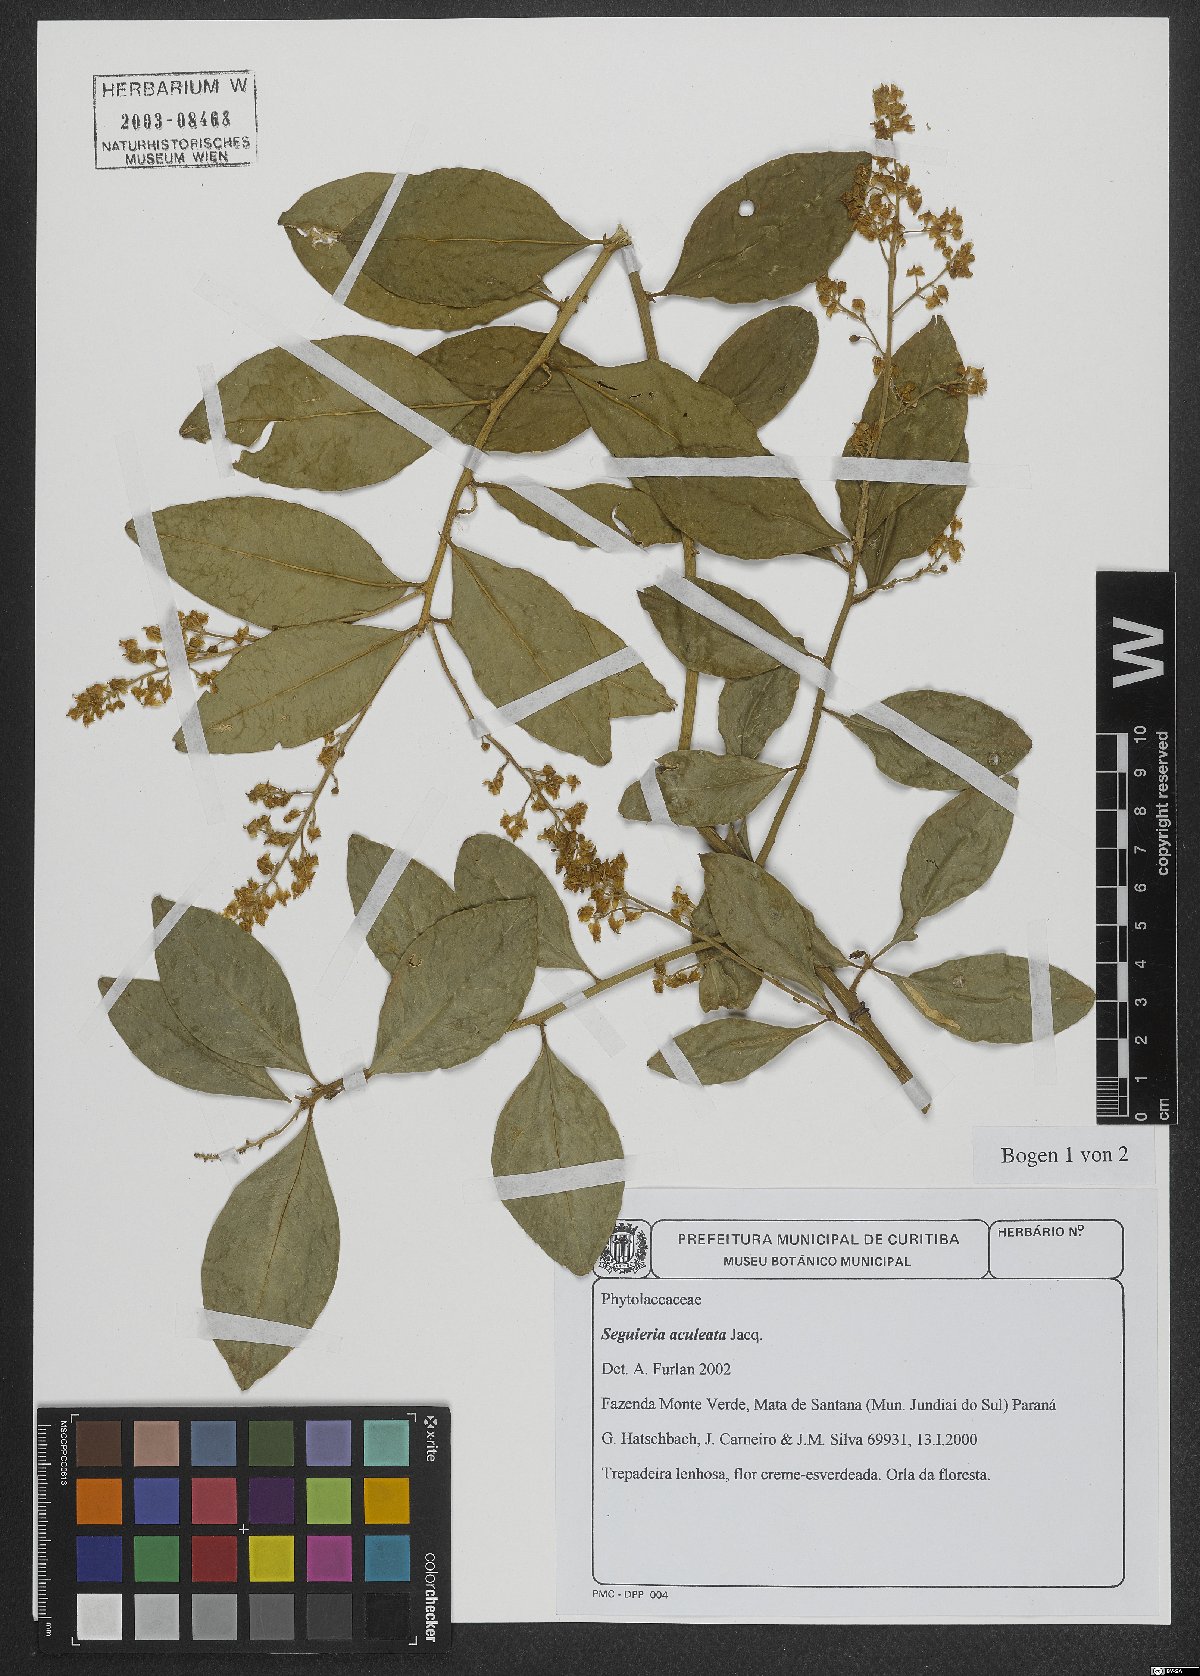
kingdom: Plantae
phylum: Tracheophyta
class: Magnoliopsida
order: Caryophyllales
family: Phytolaccaceae
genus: Seguieria
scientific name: Seguieria aculeata
